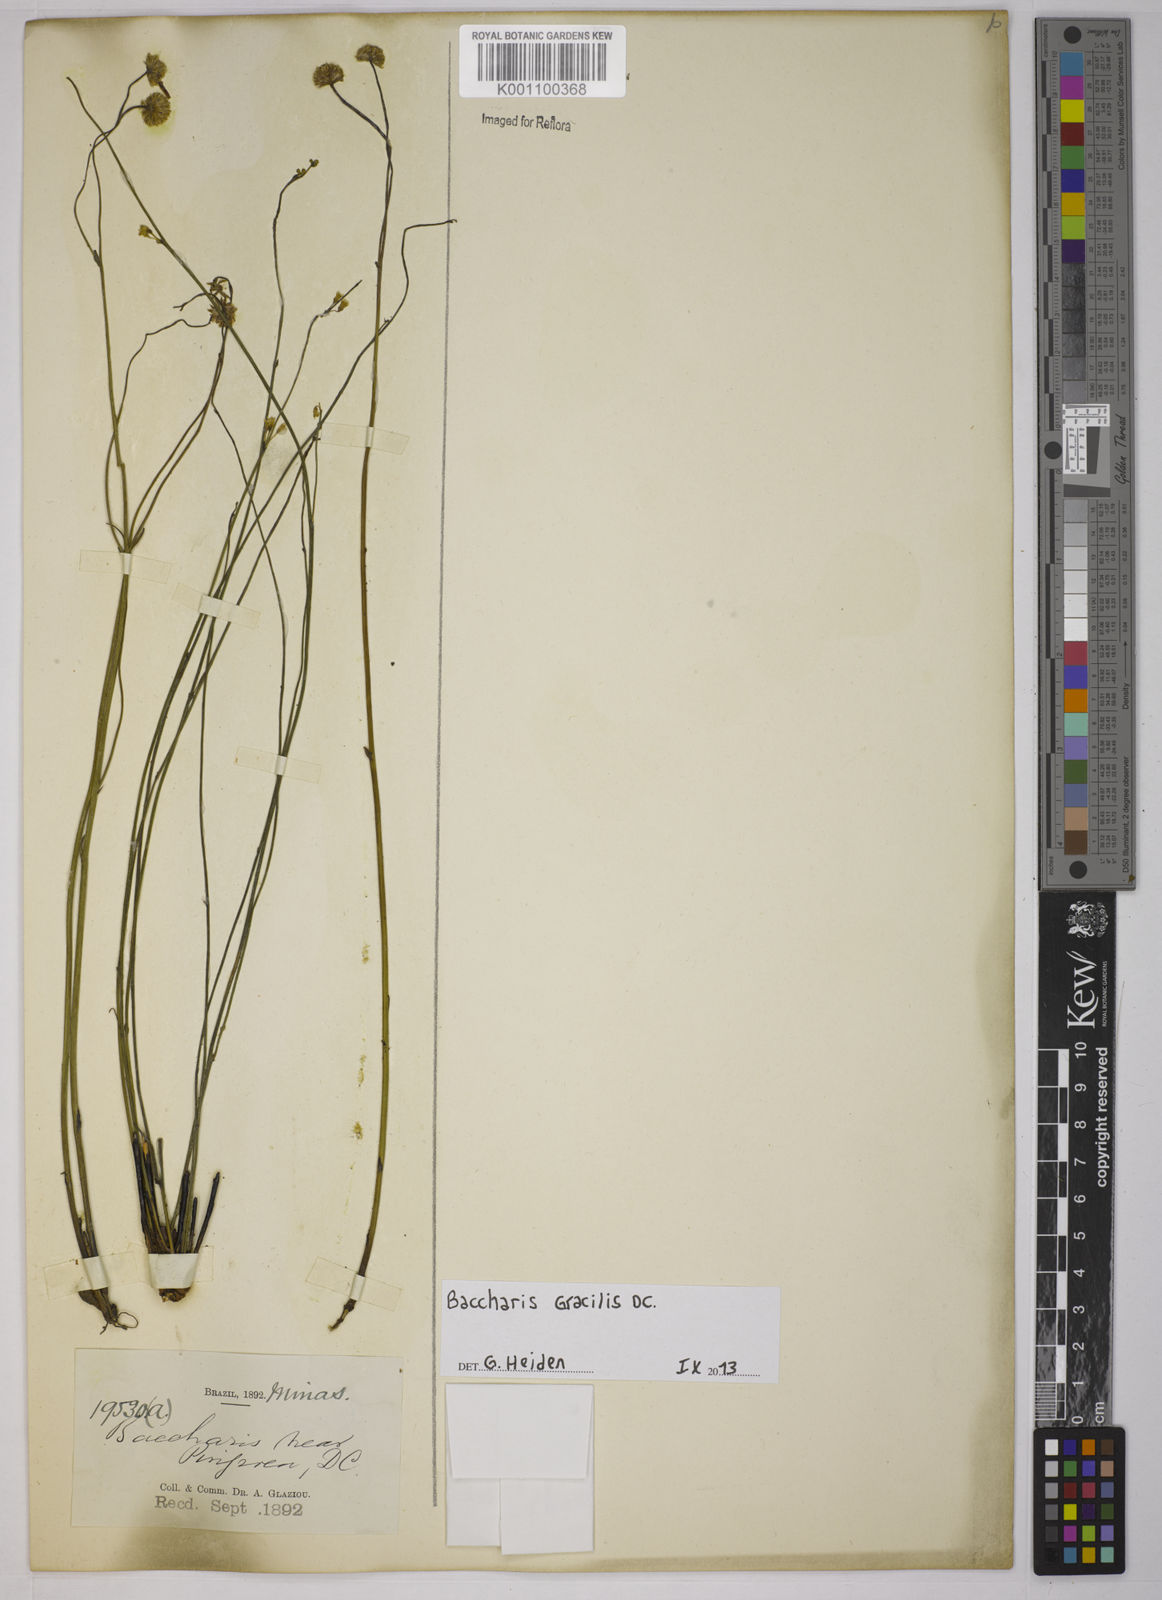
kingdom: Plantae
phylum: Tracheophyta
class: Magnoliopsida
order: Asterales
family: Asteraceae
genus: Baccharis
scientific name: Baccharis gracilis
